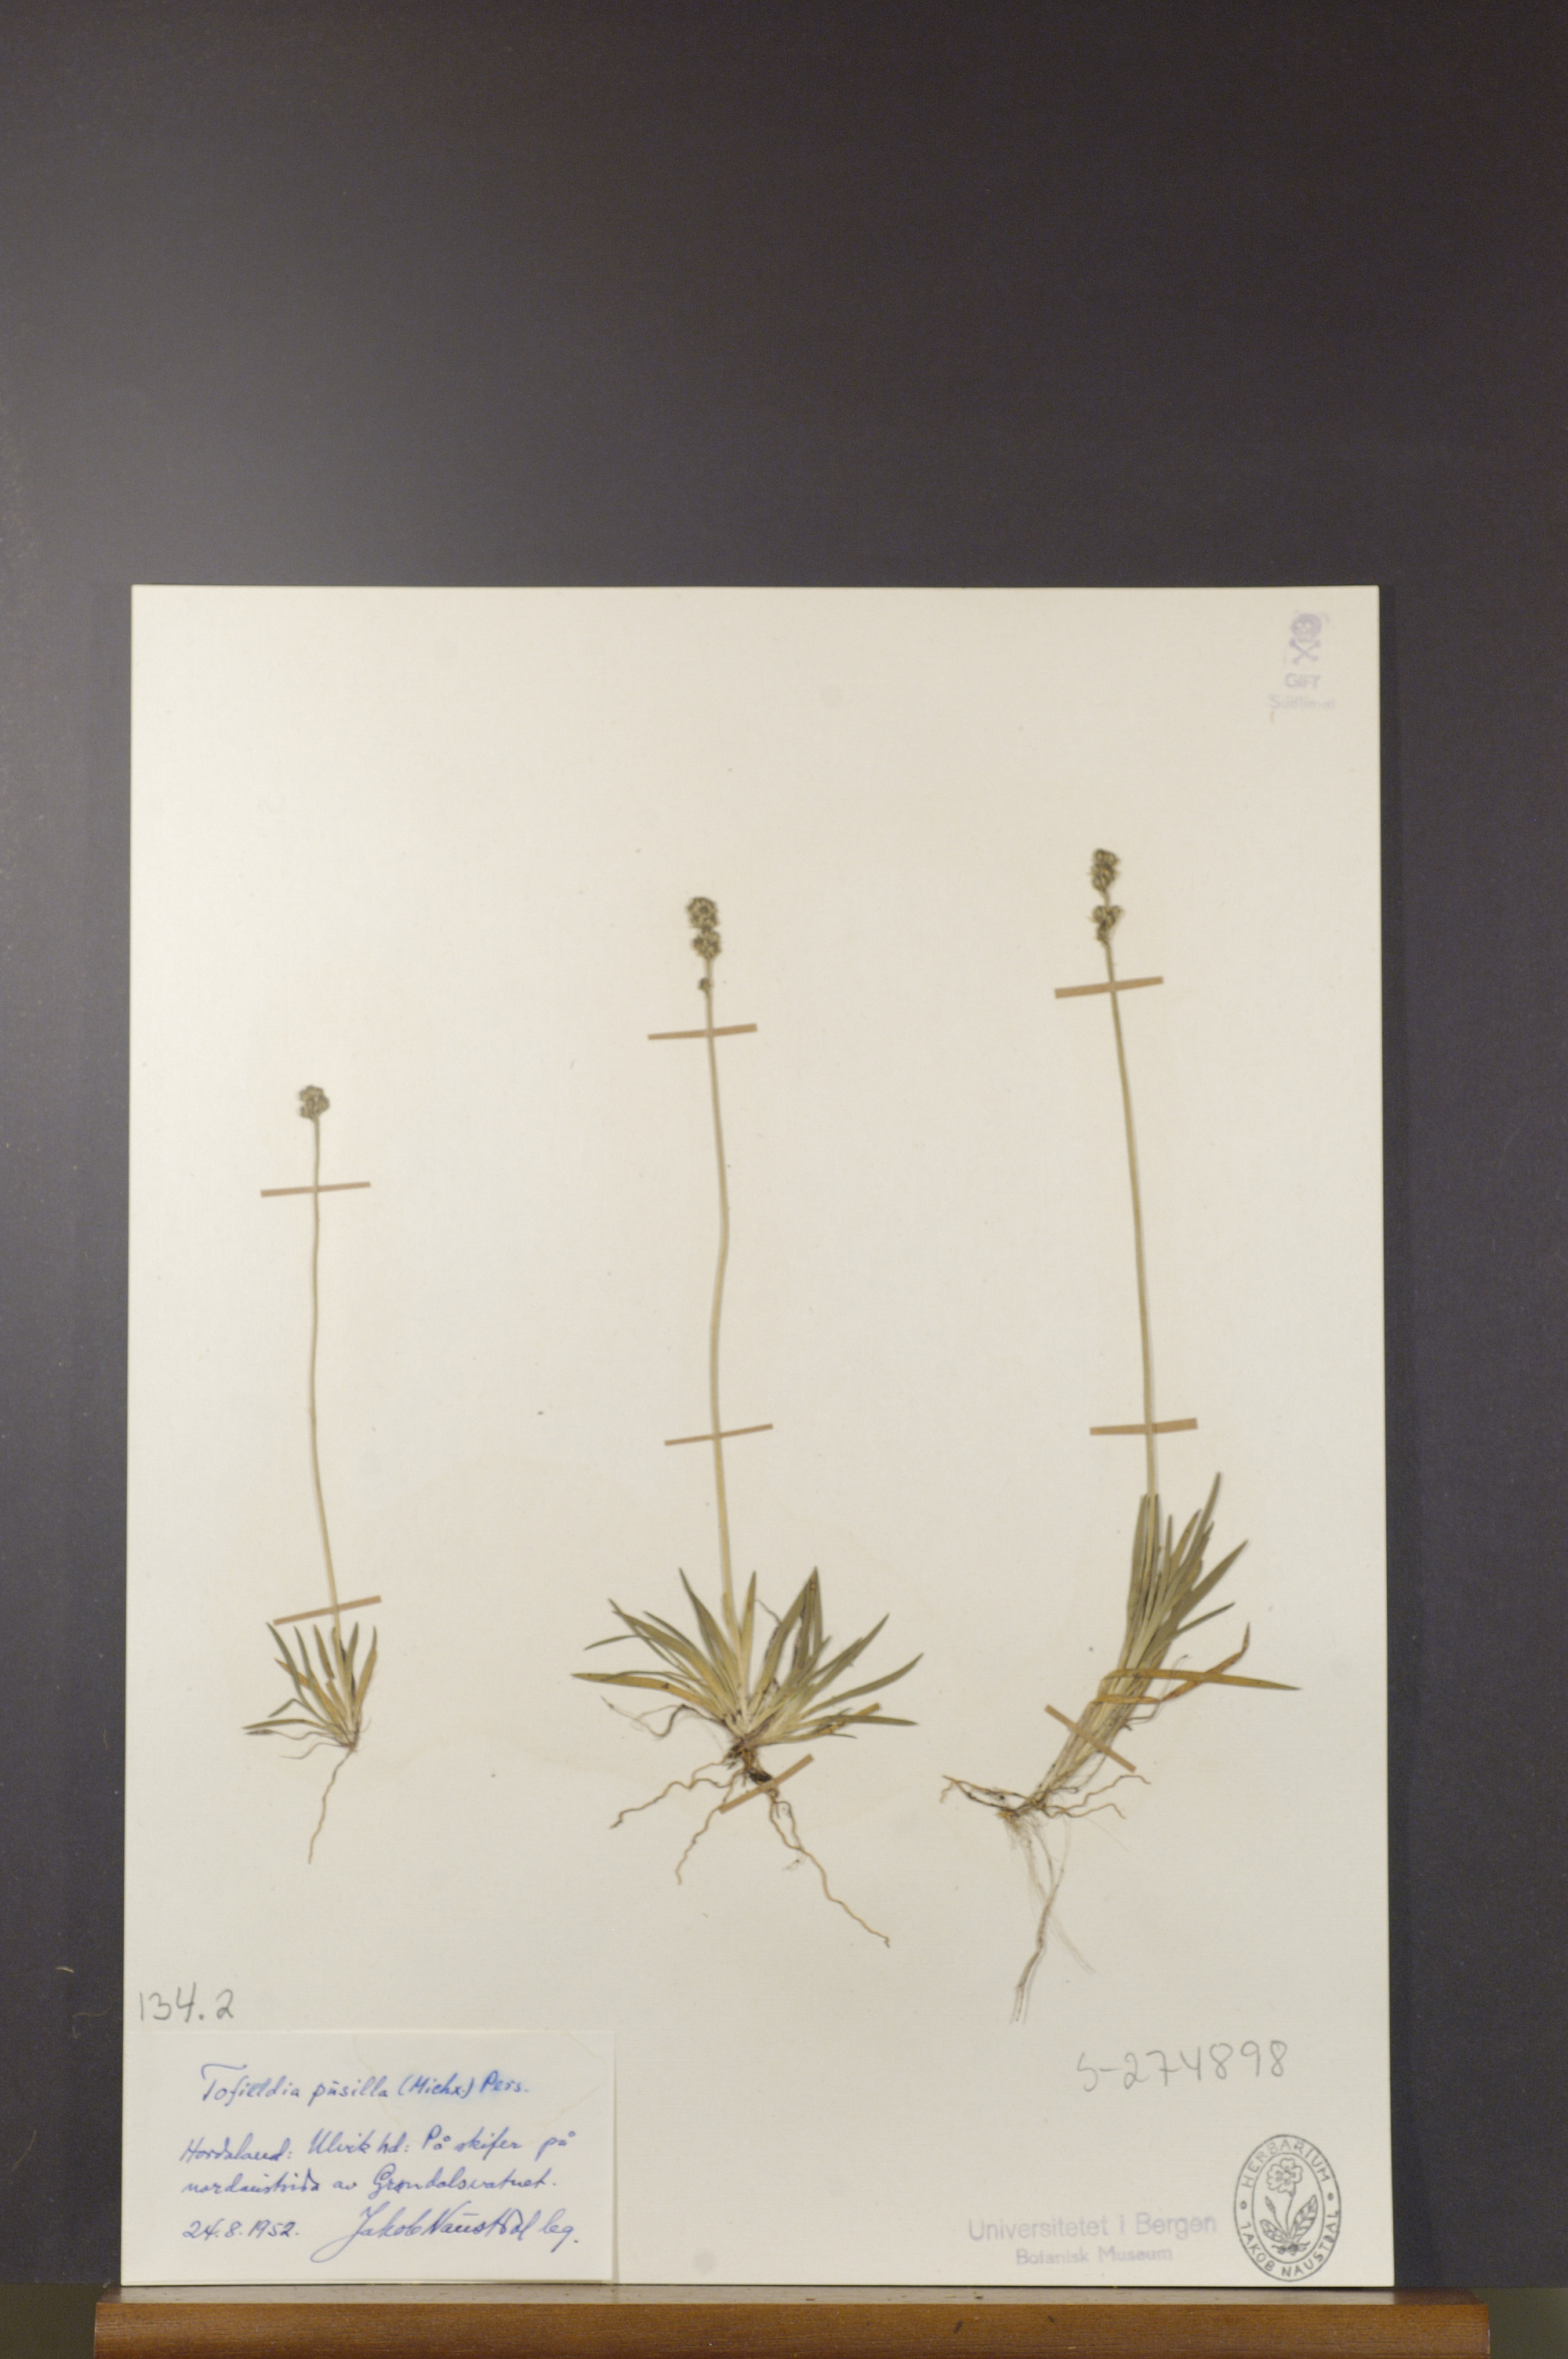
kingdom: Plantae
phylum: Tracheophyta
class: Liliopsida
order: Alismatales
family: Tofieldiaceae
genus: Tofieldia
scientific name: Tofieldia pusilla
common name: Scottish false asphodel
